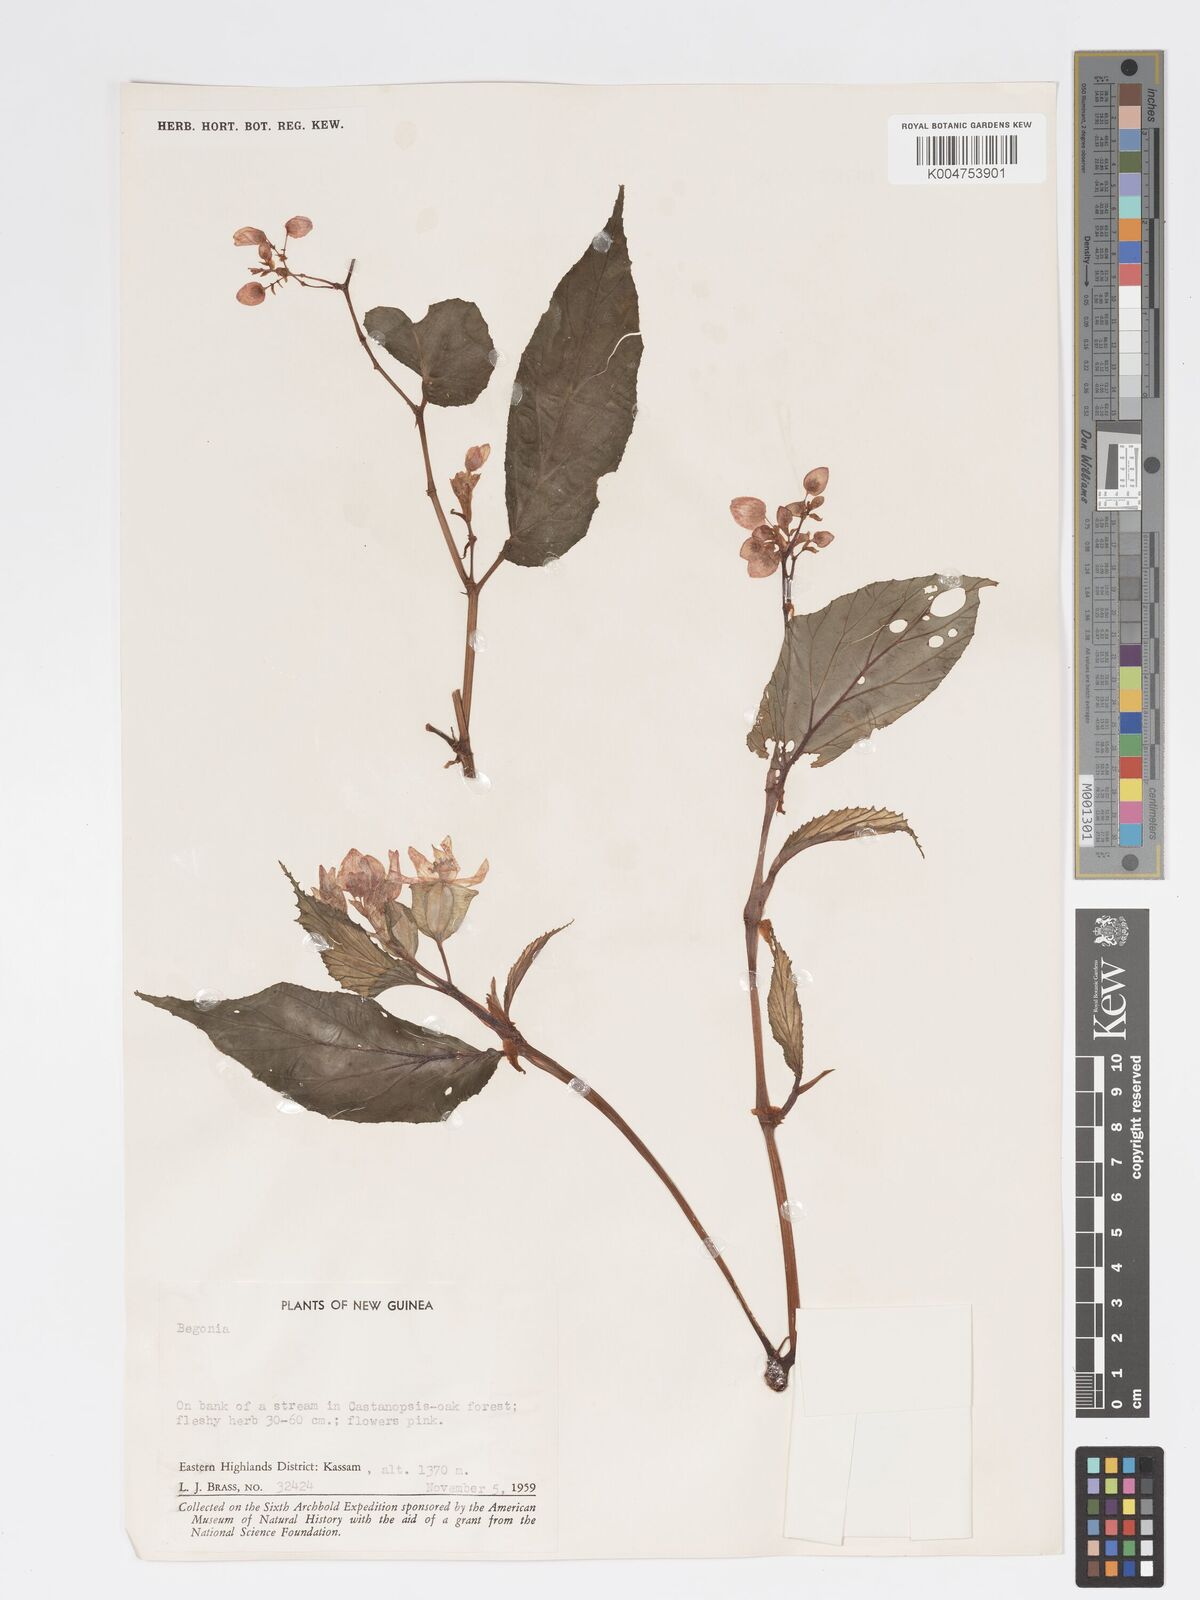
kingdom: Plantae
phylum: Tracheophyta
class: Magnoliopsida
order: Cucurbitales
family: Begoniaceae
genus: Begonia
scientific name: Begonia
